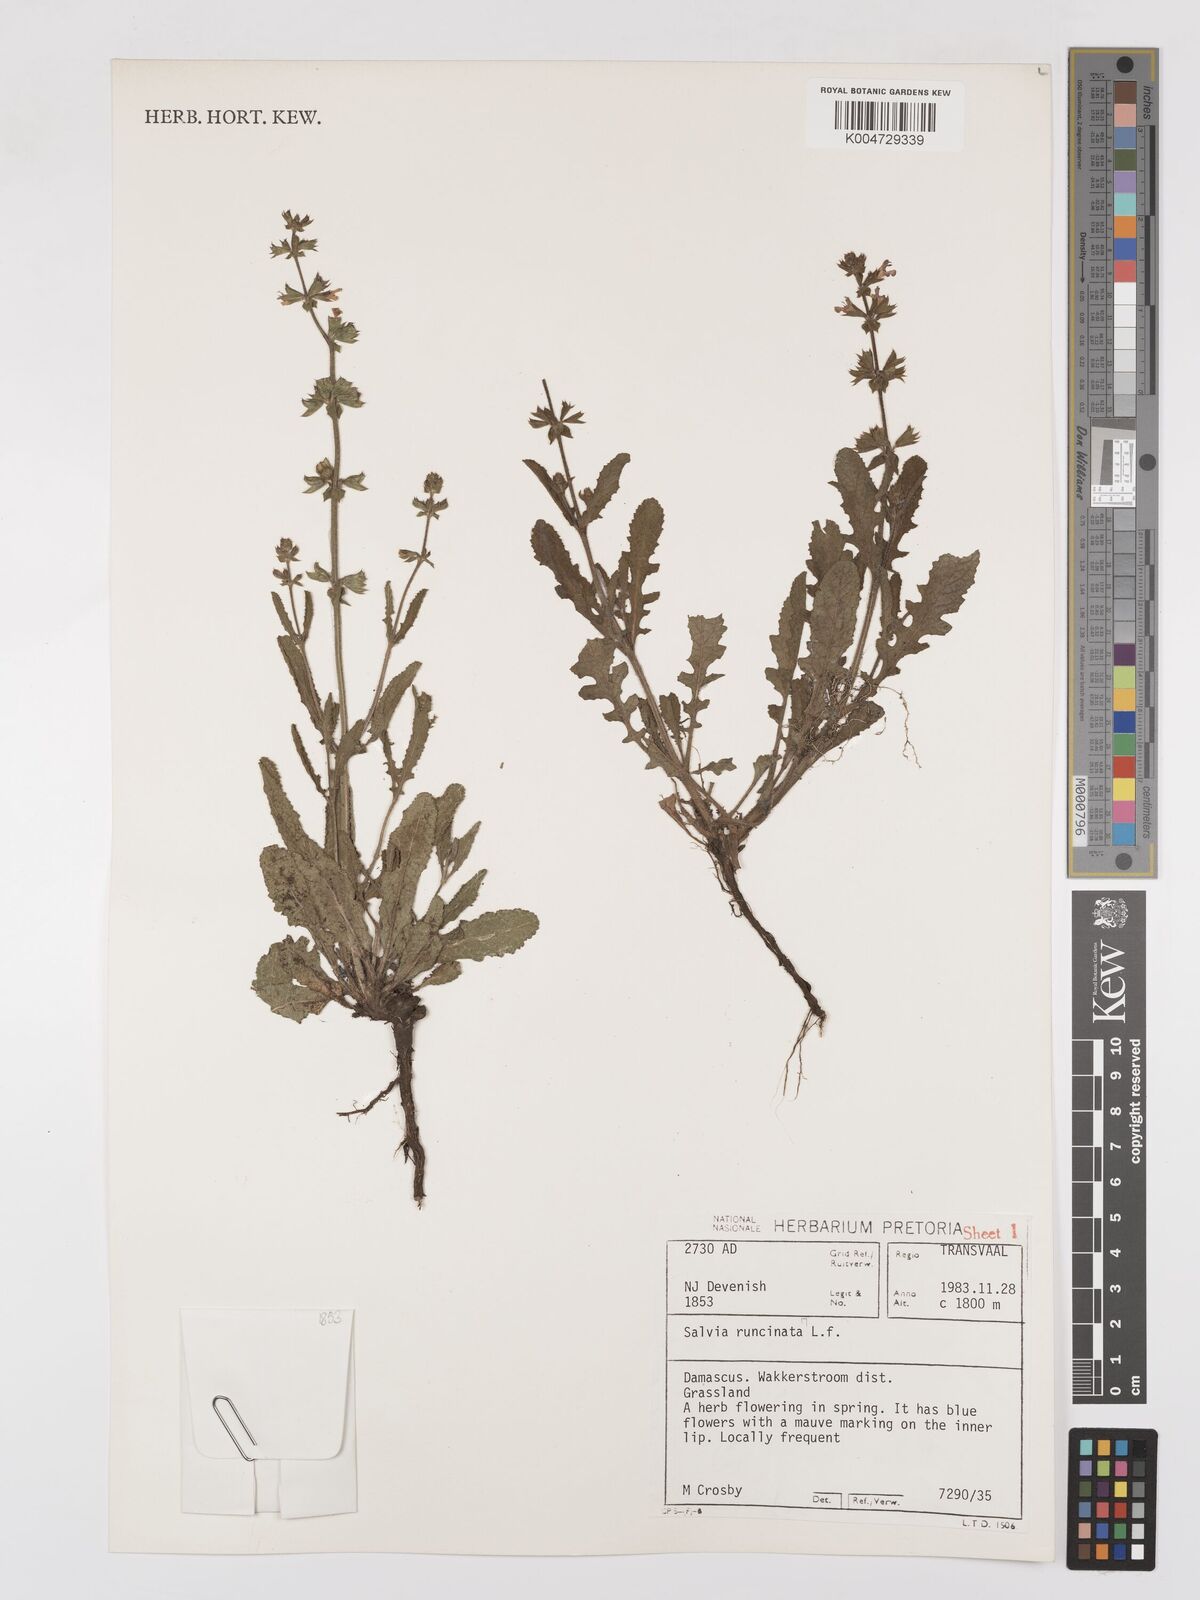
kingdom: Plantae
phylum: Tracheophyta
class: Magnoliopsida
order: Lamiales
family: Lamiaceae
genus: Salvia
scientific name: Salvia runcinata
